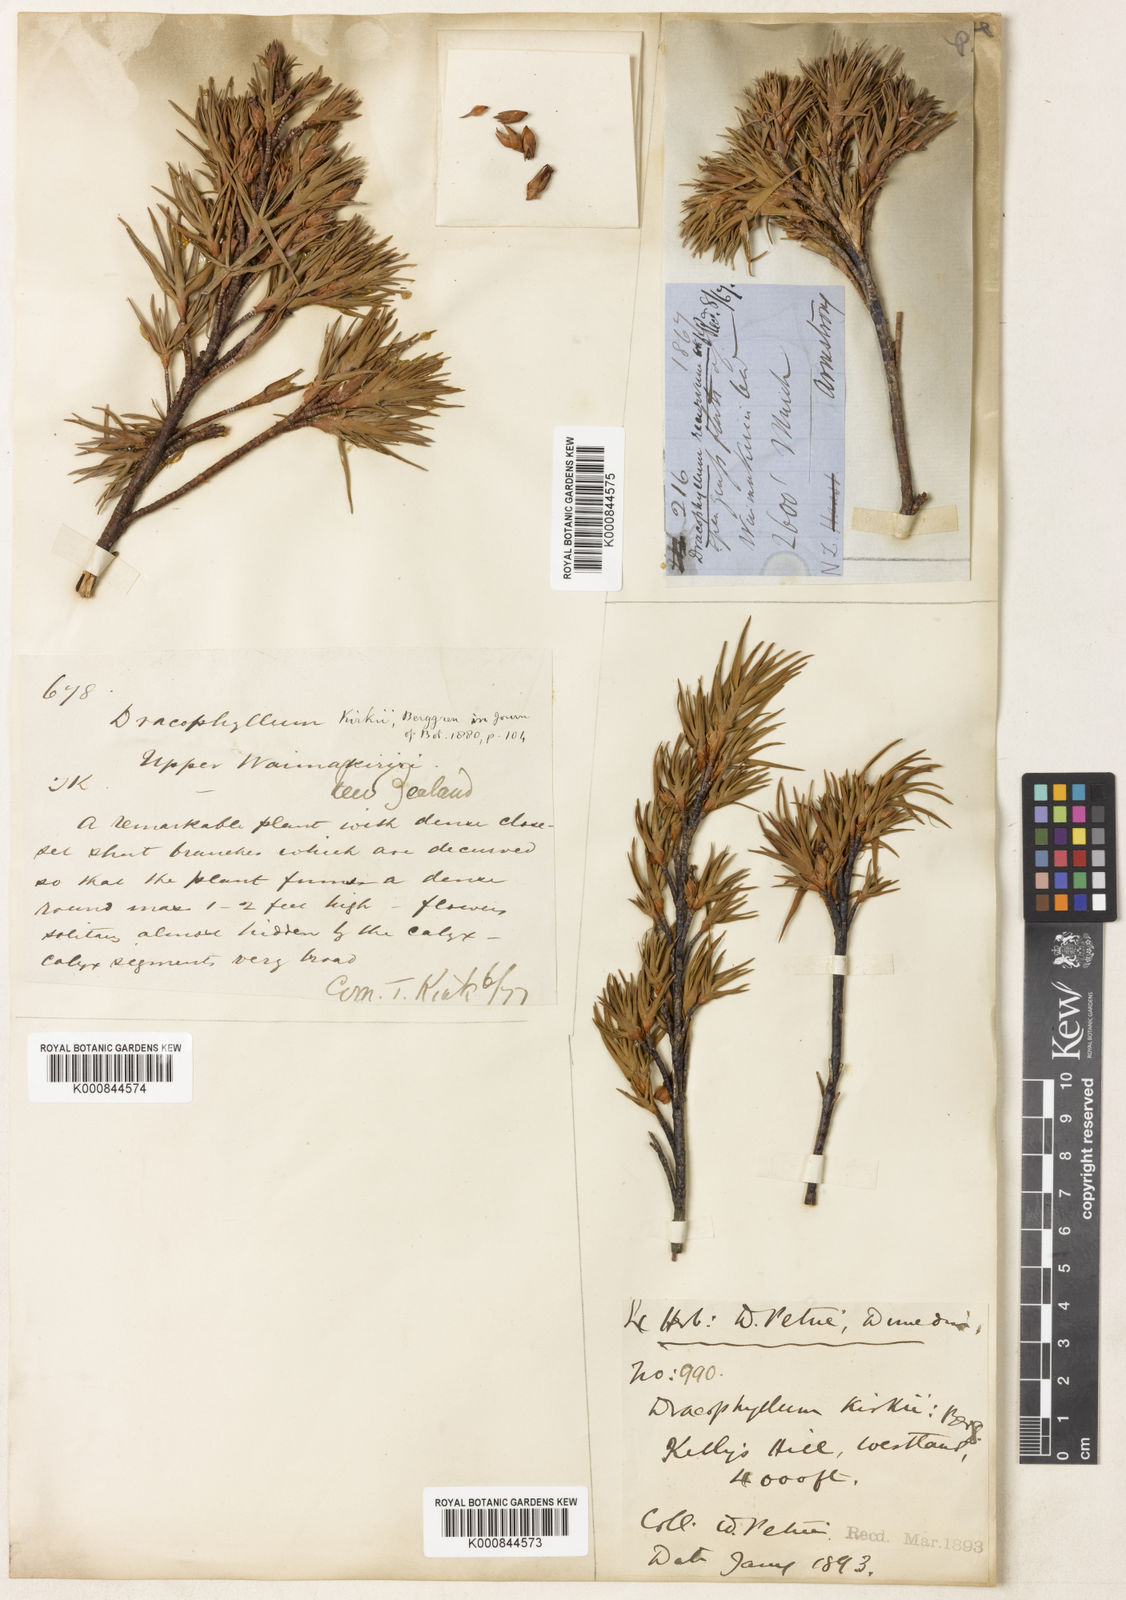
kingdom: Plantae
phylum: Tracheophyta
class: Magnoliopsida
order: Ericales
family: Ericaceae
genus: Dracophyllum
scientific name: Dracophyllum kirkii
